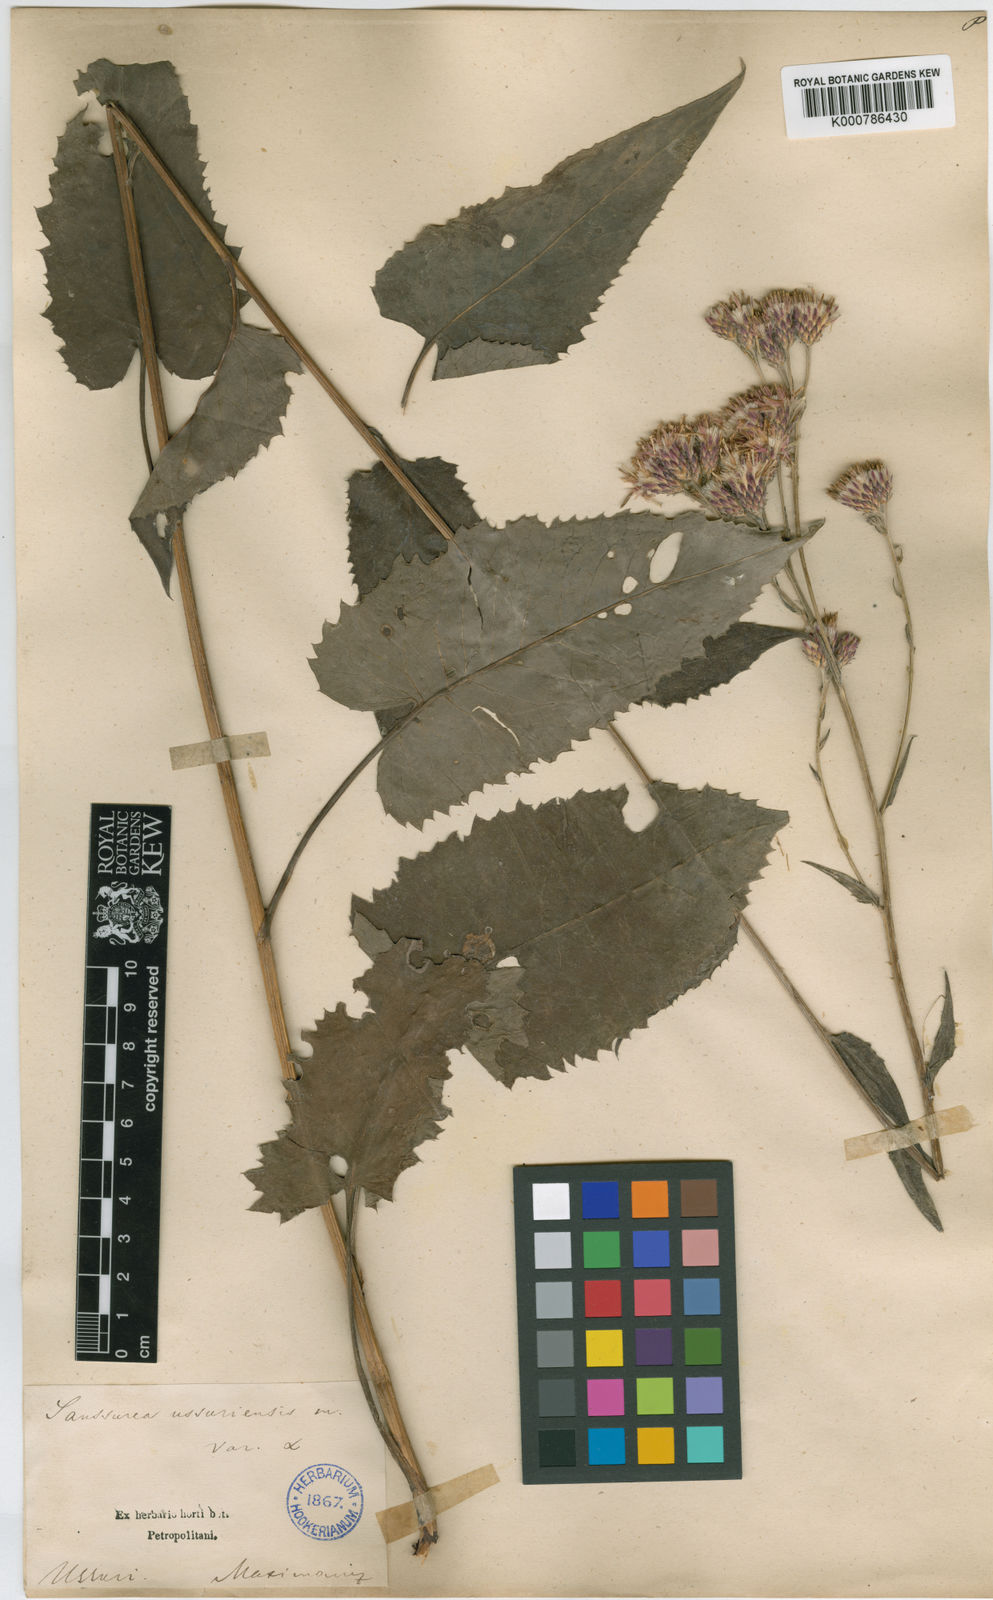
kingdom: Plantae
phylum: Tracheophyta
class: Magnoliopsida
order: Asterales
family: Asteraceae
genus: Saussurea
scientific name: Saussurea ussuriensis
